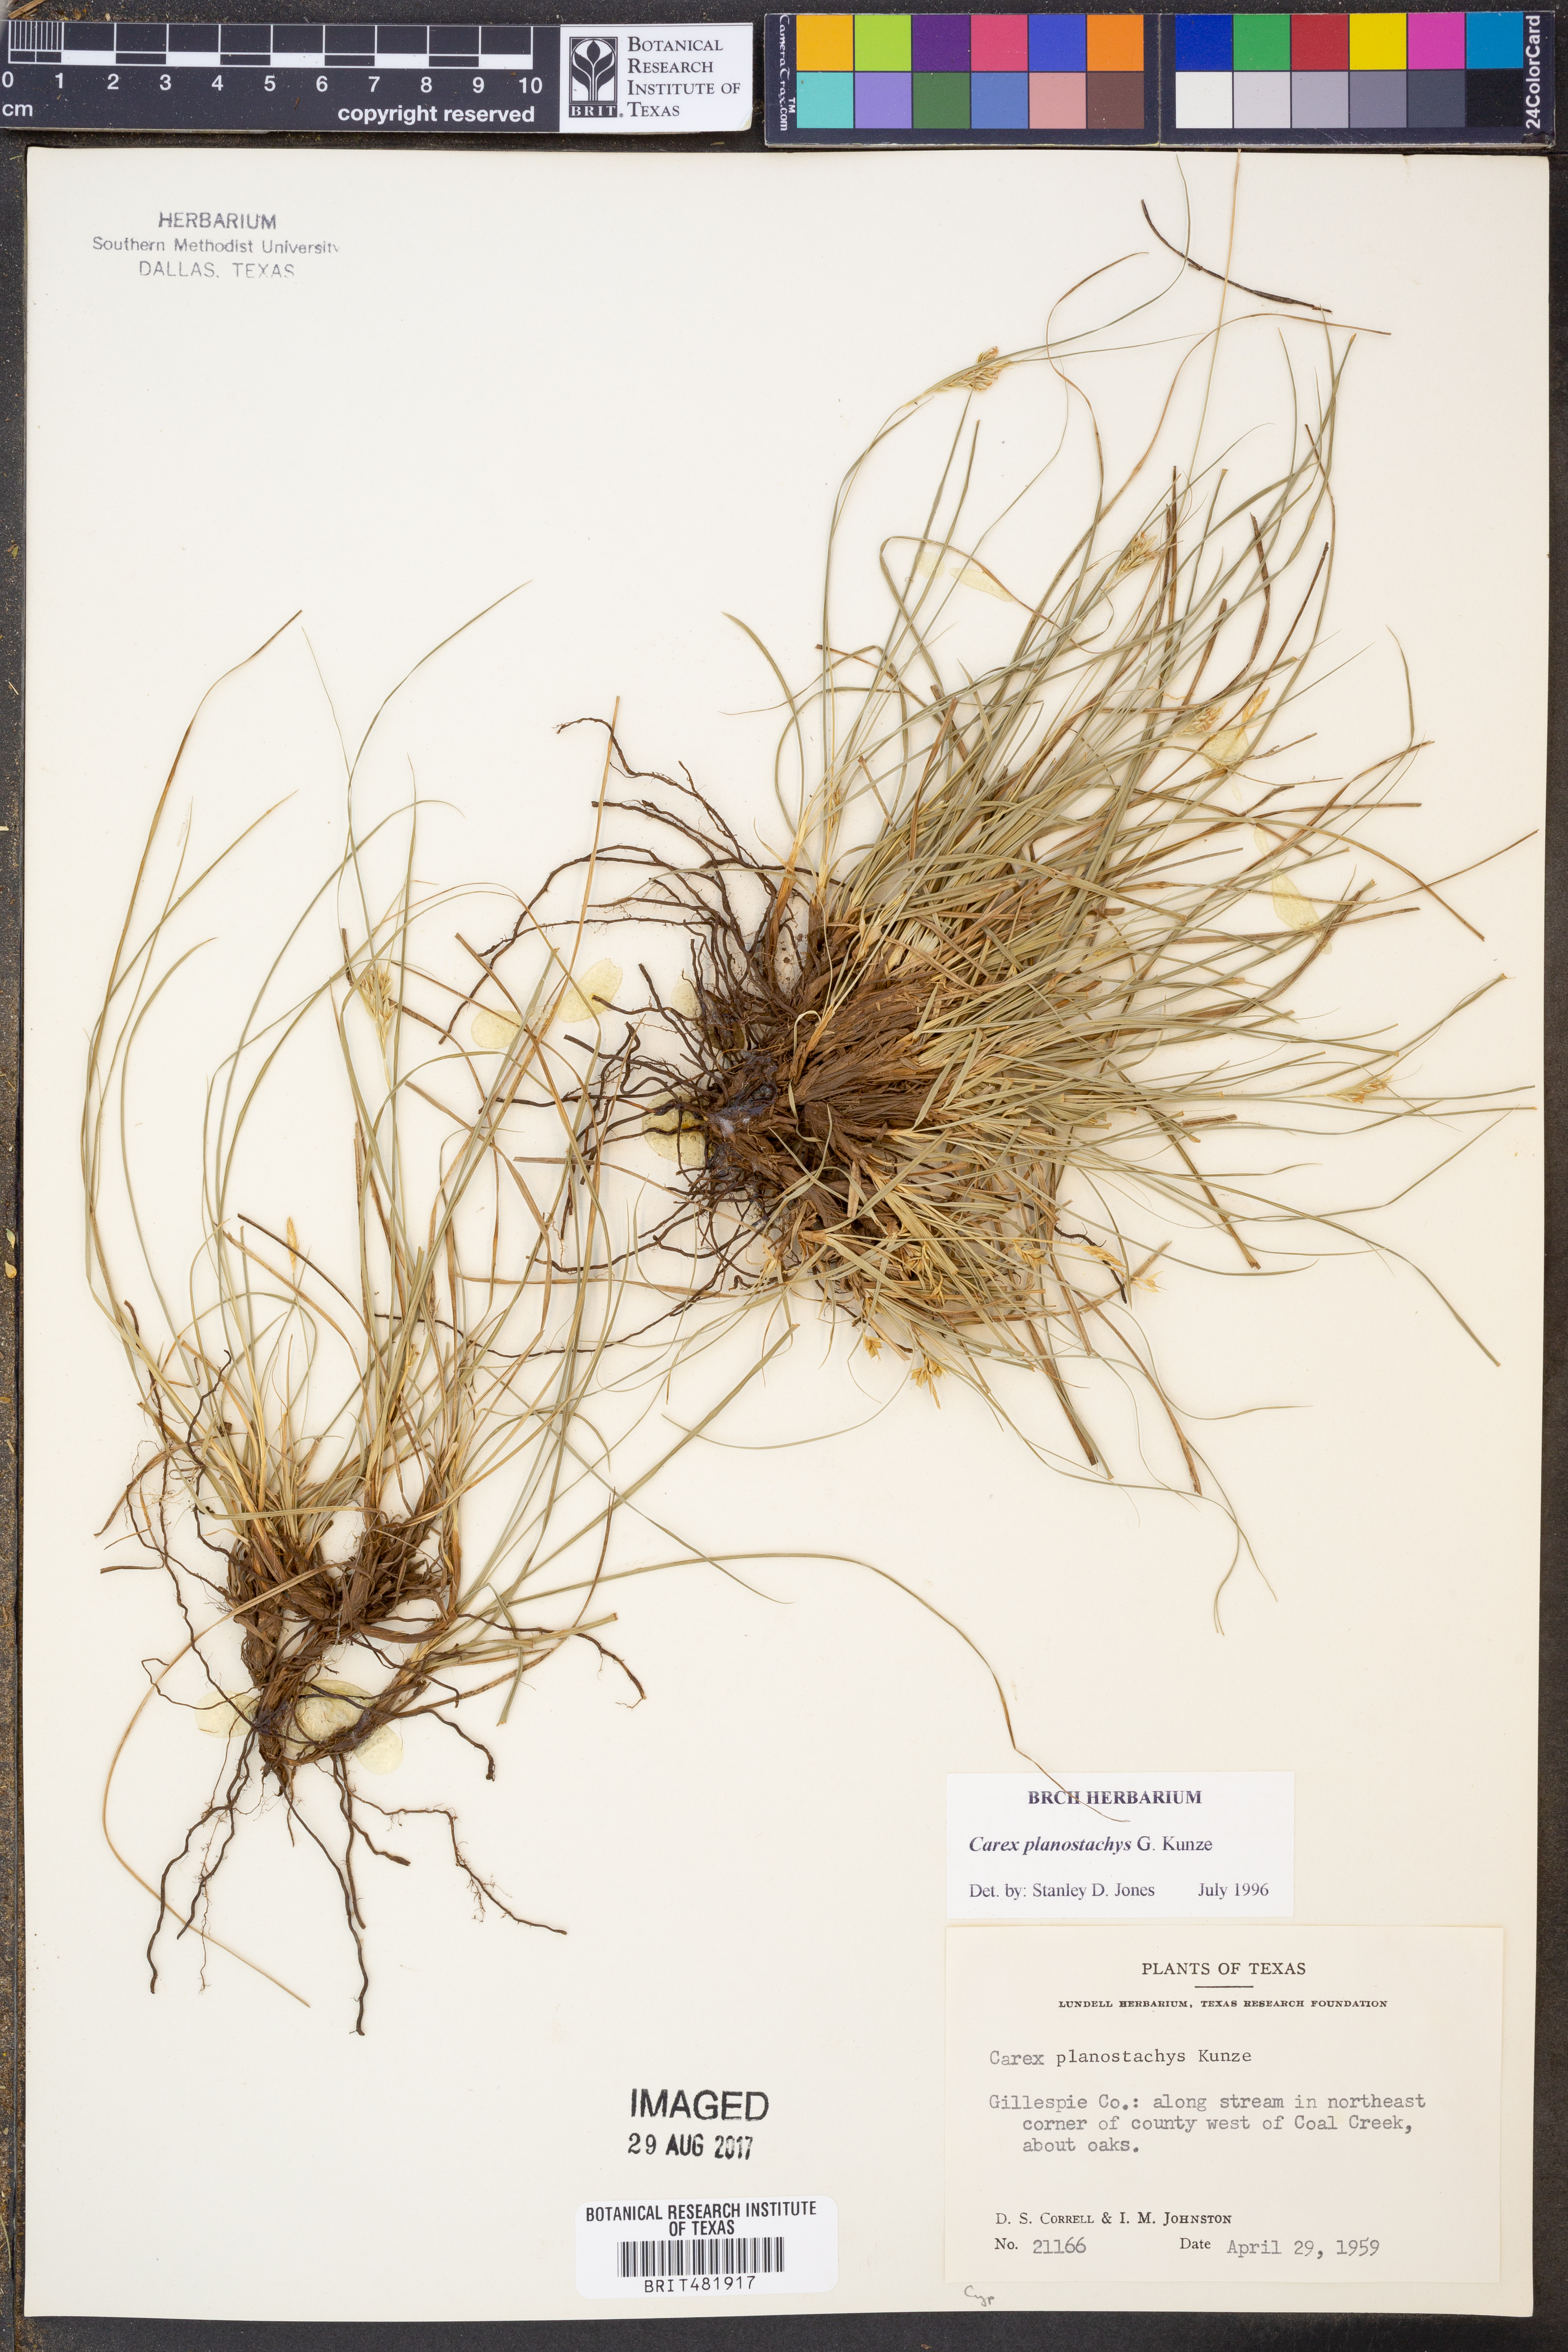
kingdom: Plantae
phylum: Tracheophyta
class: Liliopsida
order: Poales
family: Cyperaceae
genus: Carex
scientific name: Carex planostachys
